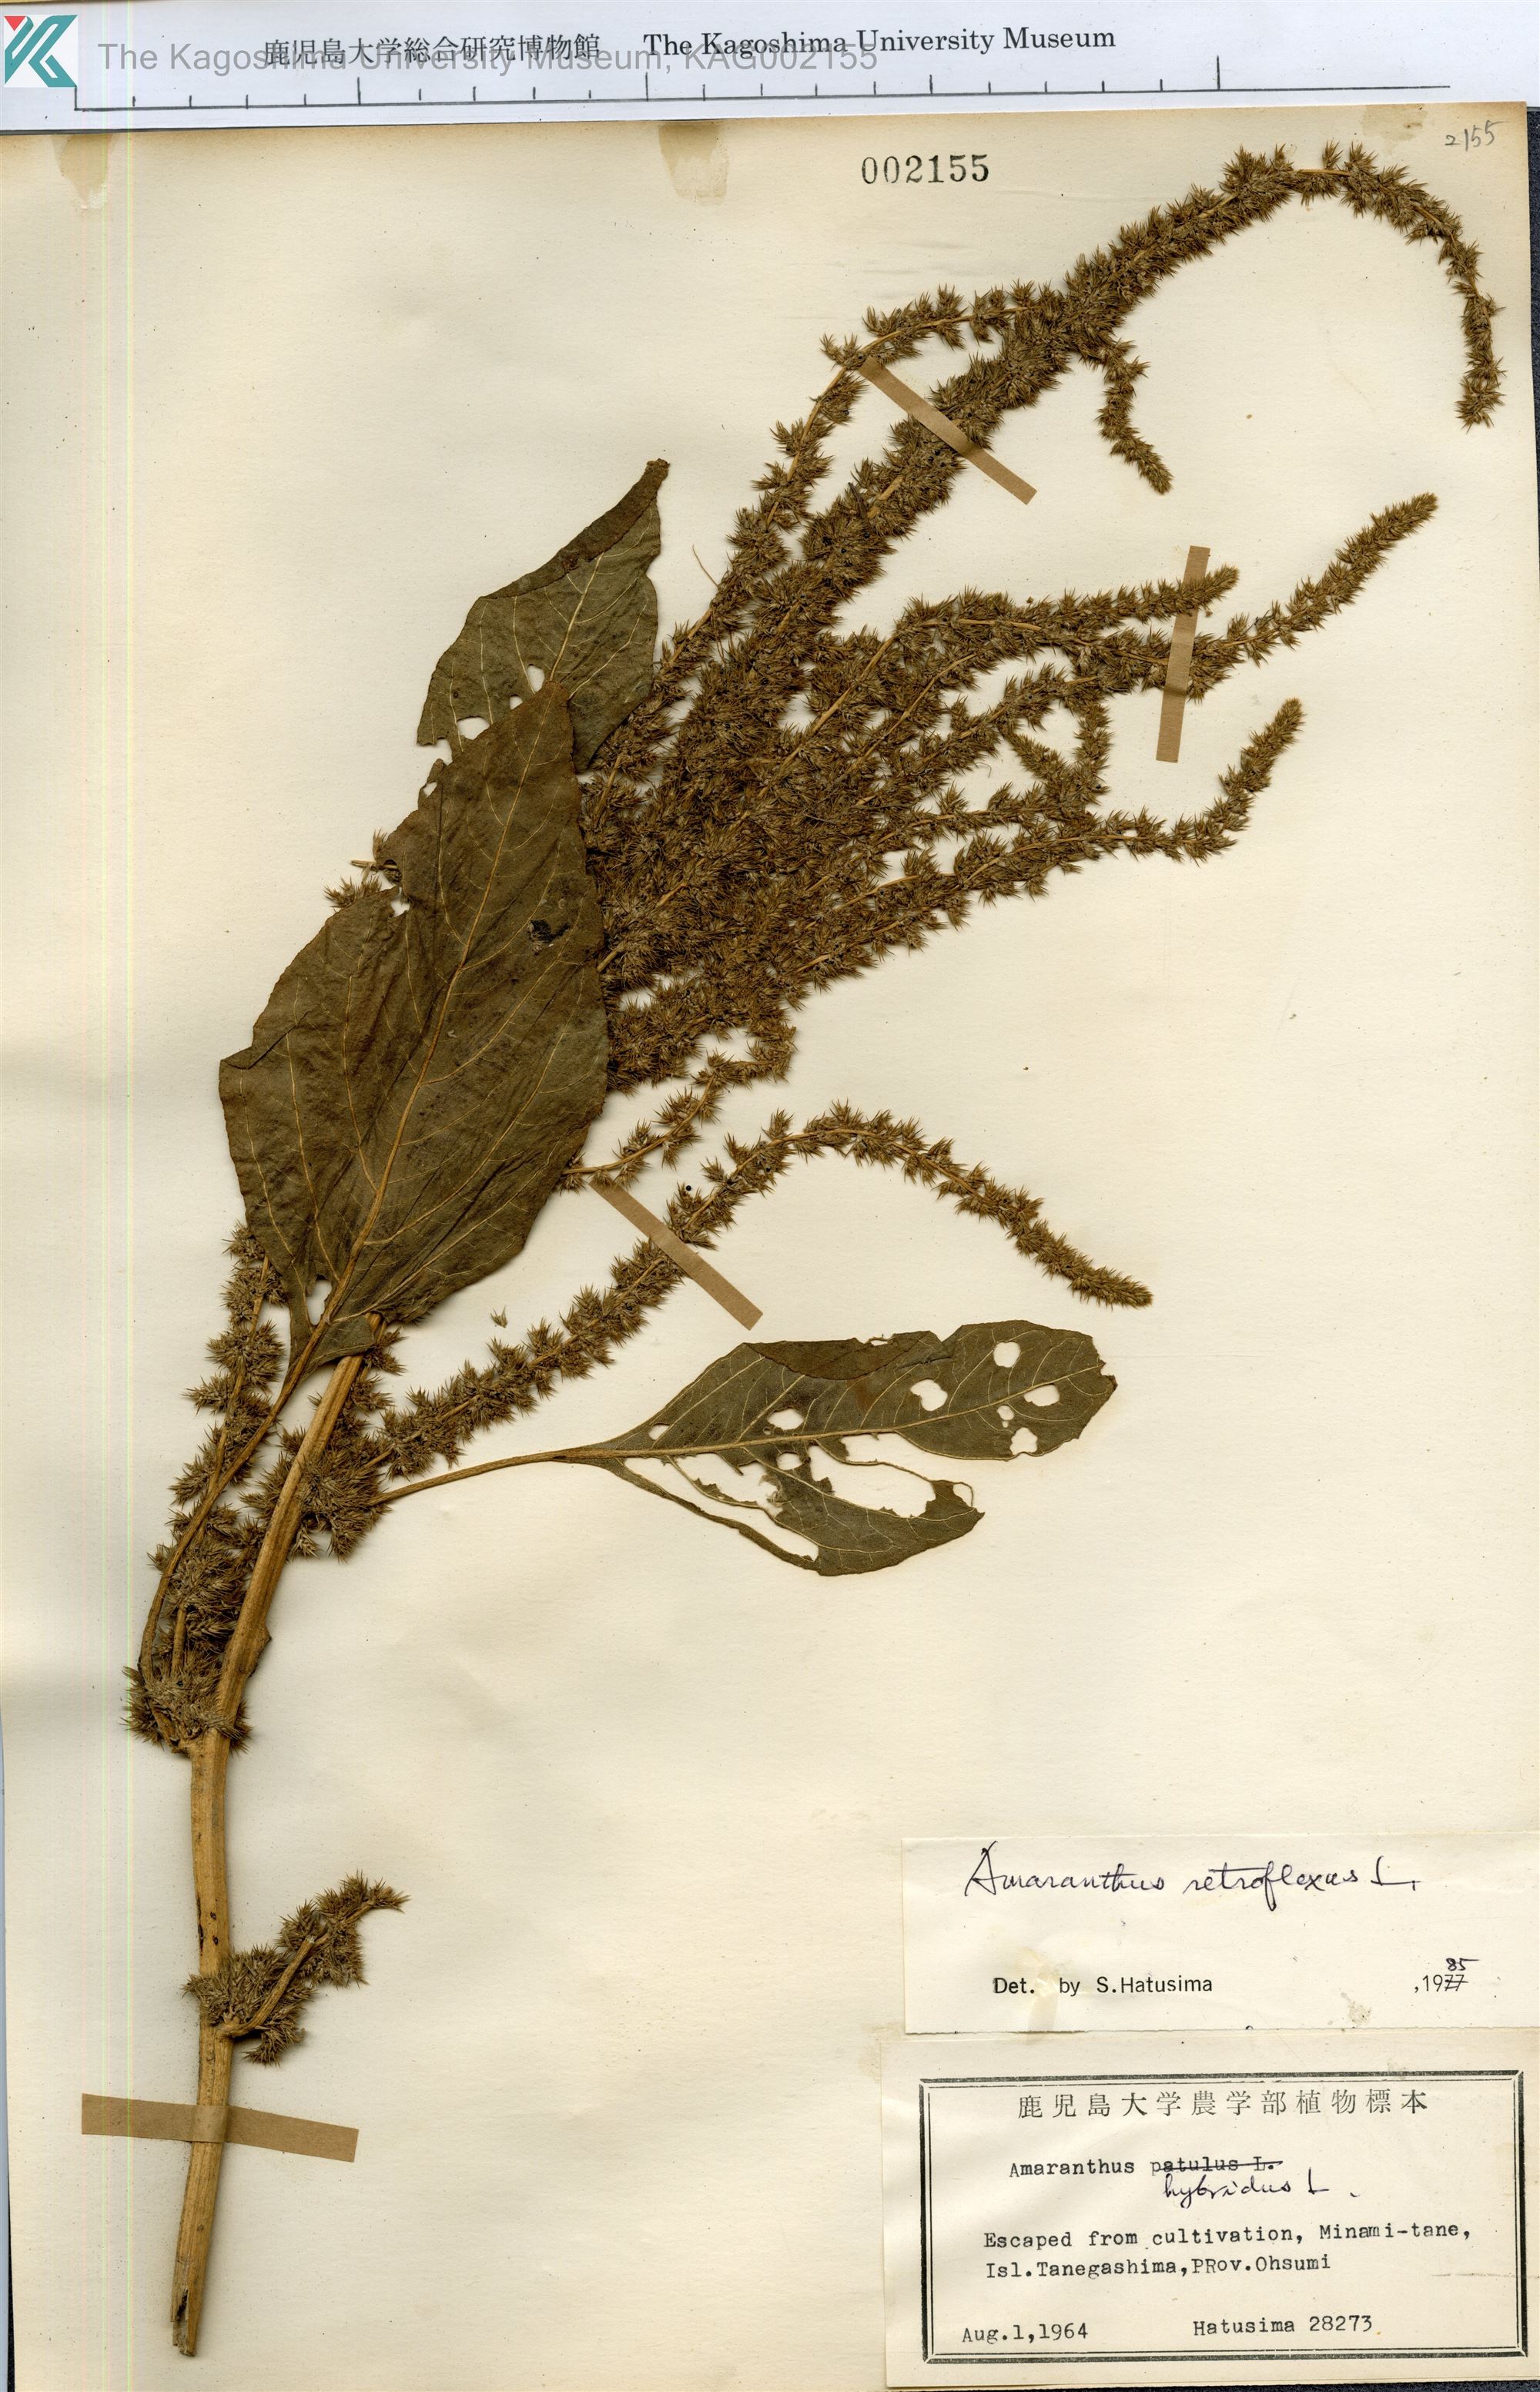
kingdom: Plantae
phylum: Tracheophyta
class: Magnoliopsida
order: Caryophyllales
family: Amaranthaceae
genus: Amaranthus
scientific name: Amaranthus retroflexus
